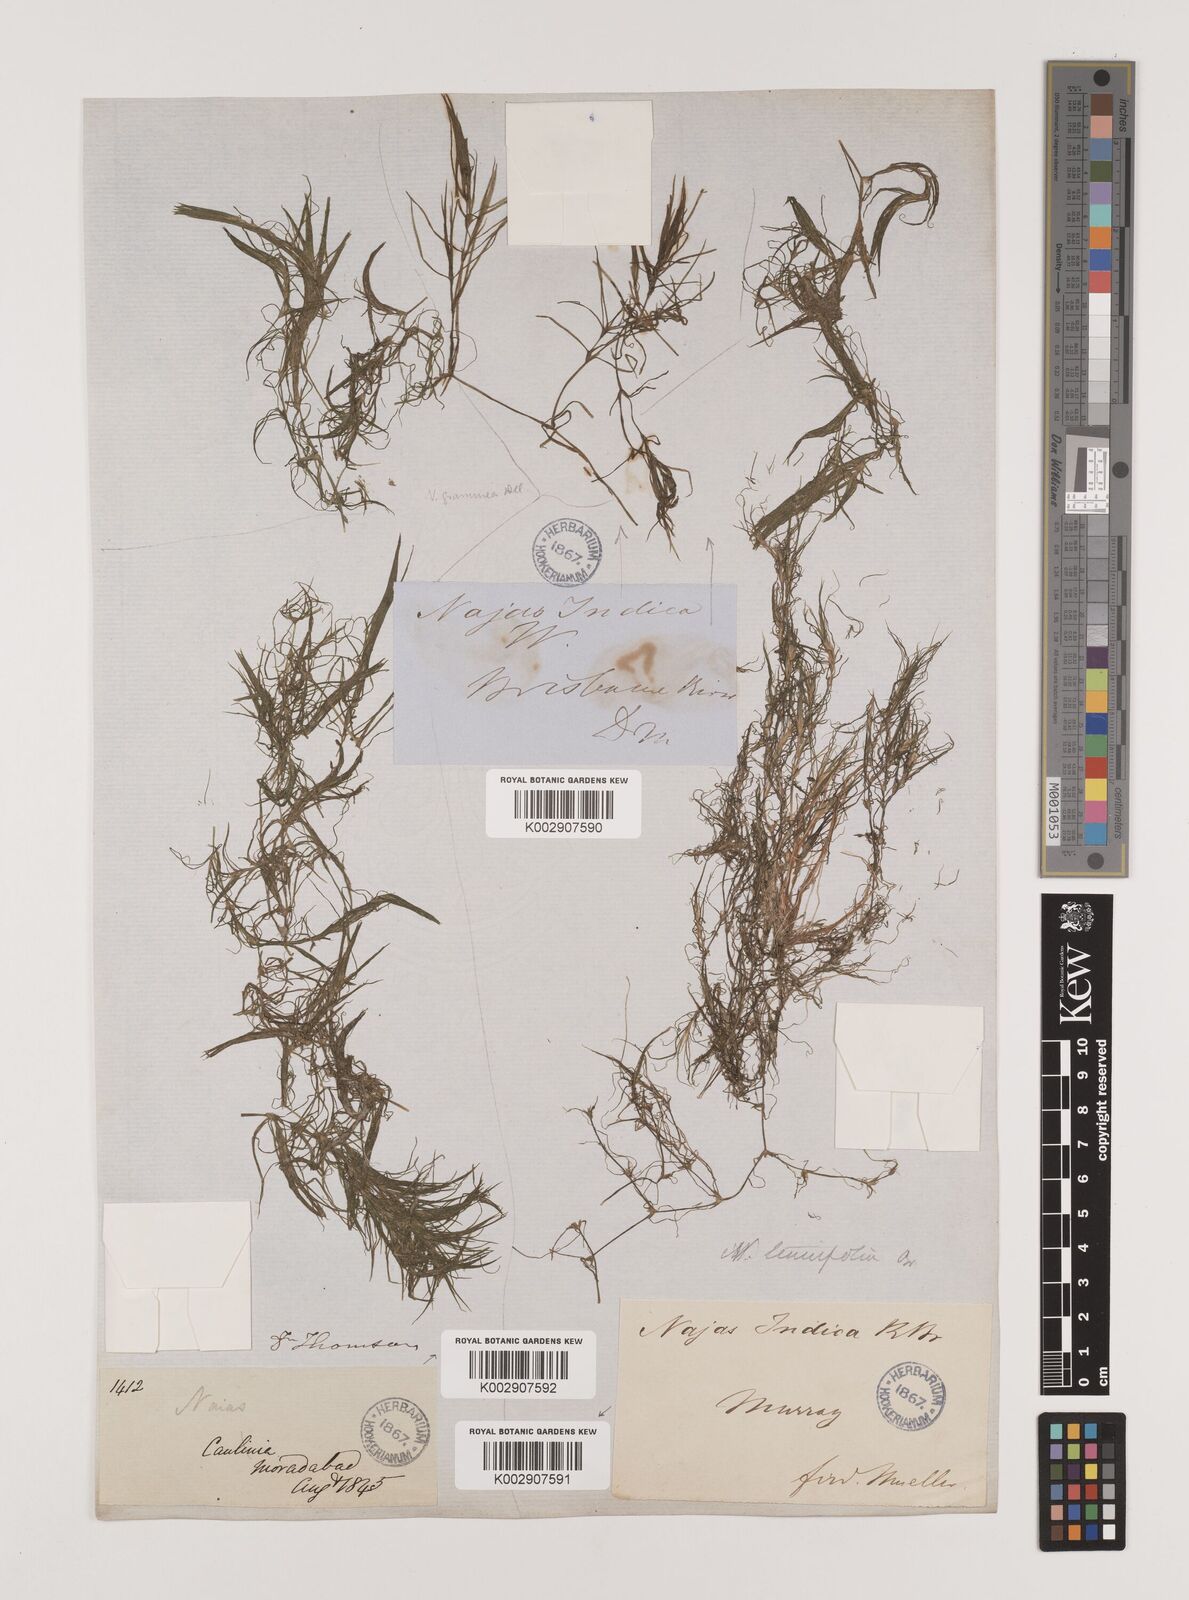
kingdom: Plantae
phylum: Tracheophyta
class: Liliopsida
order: Alismatales
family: Hydrocharitaceae
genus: Najas
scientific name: Najas tenuifolia
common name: Thin-leaved naiad
